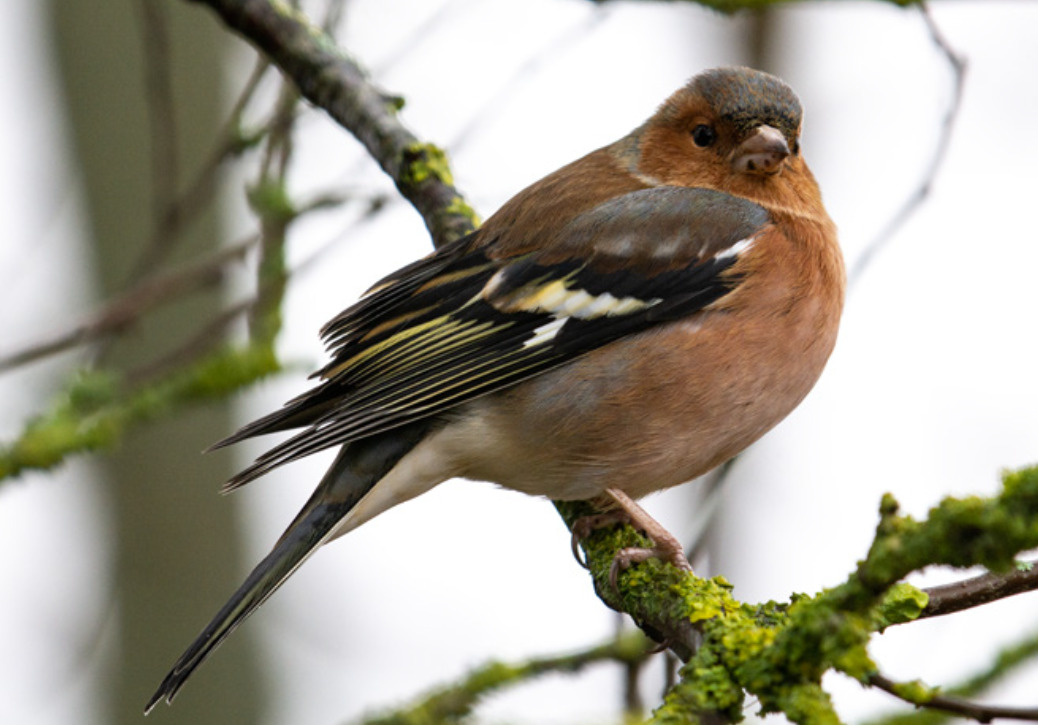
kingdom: Animalia
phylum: Chordata
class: Aves
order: Passeriformes
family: Fringillidae
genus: Fringilla
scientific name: Fringilla coelebs
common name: Bogfinke
